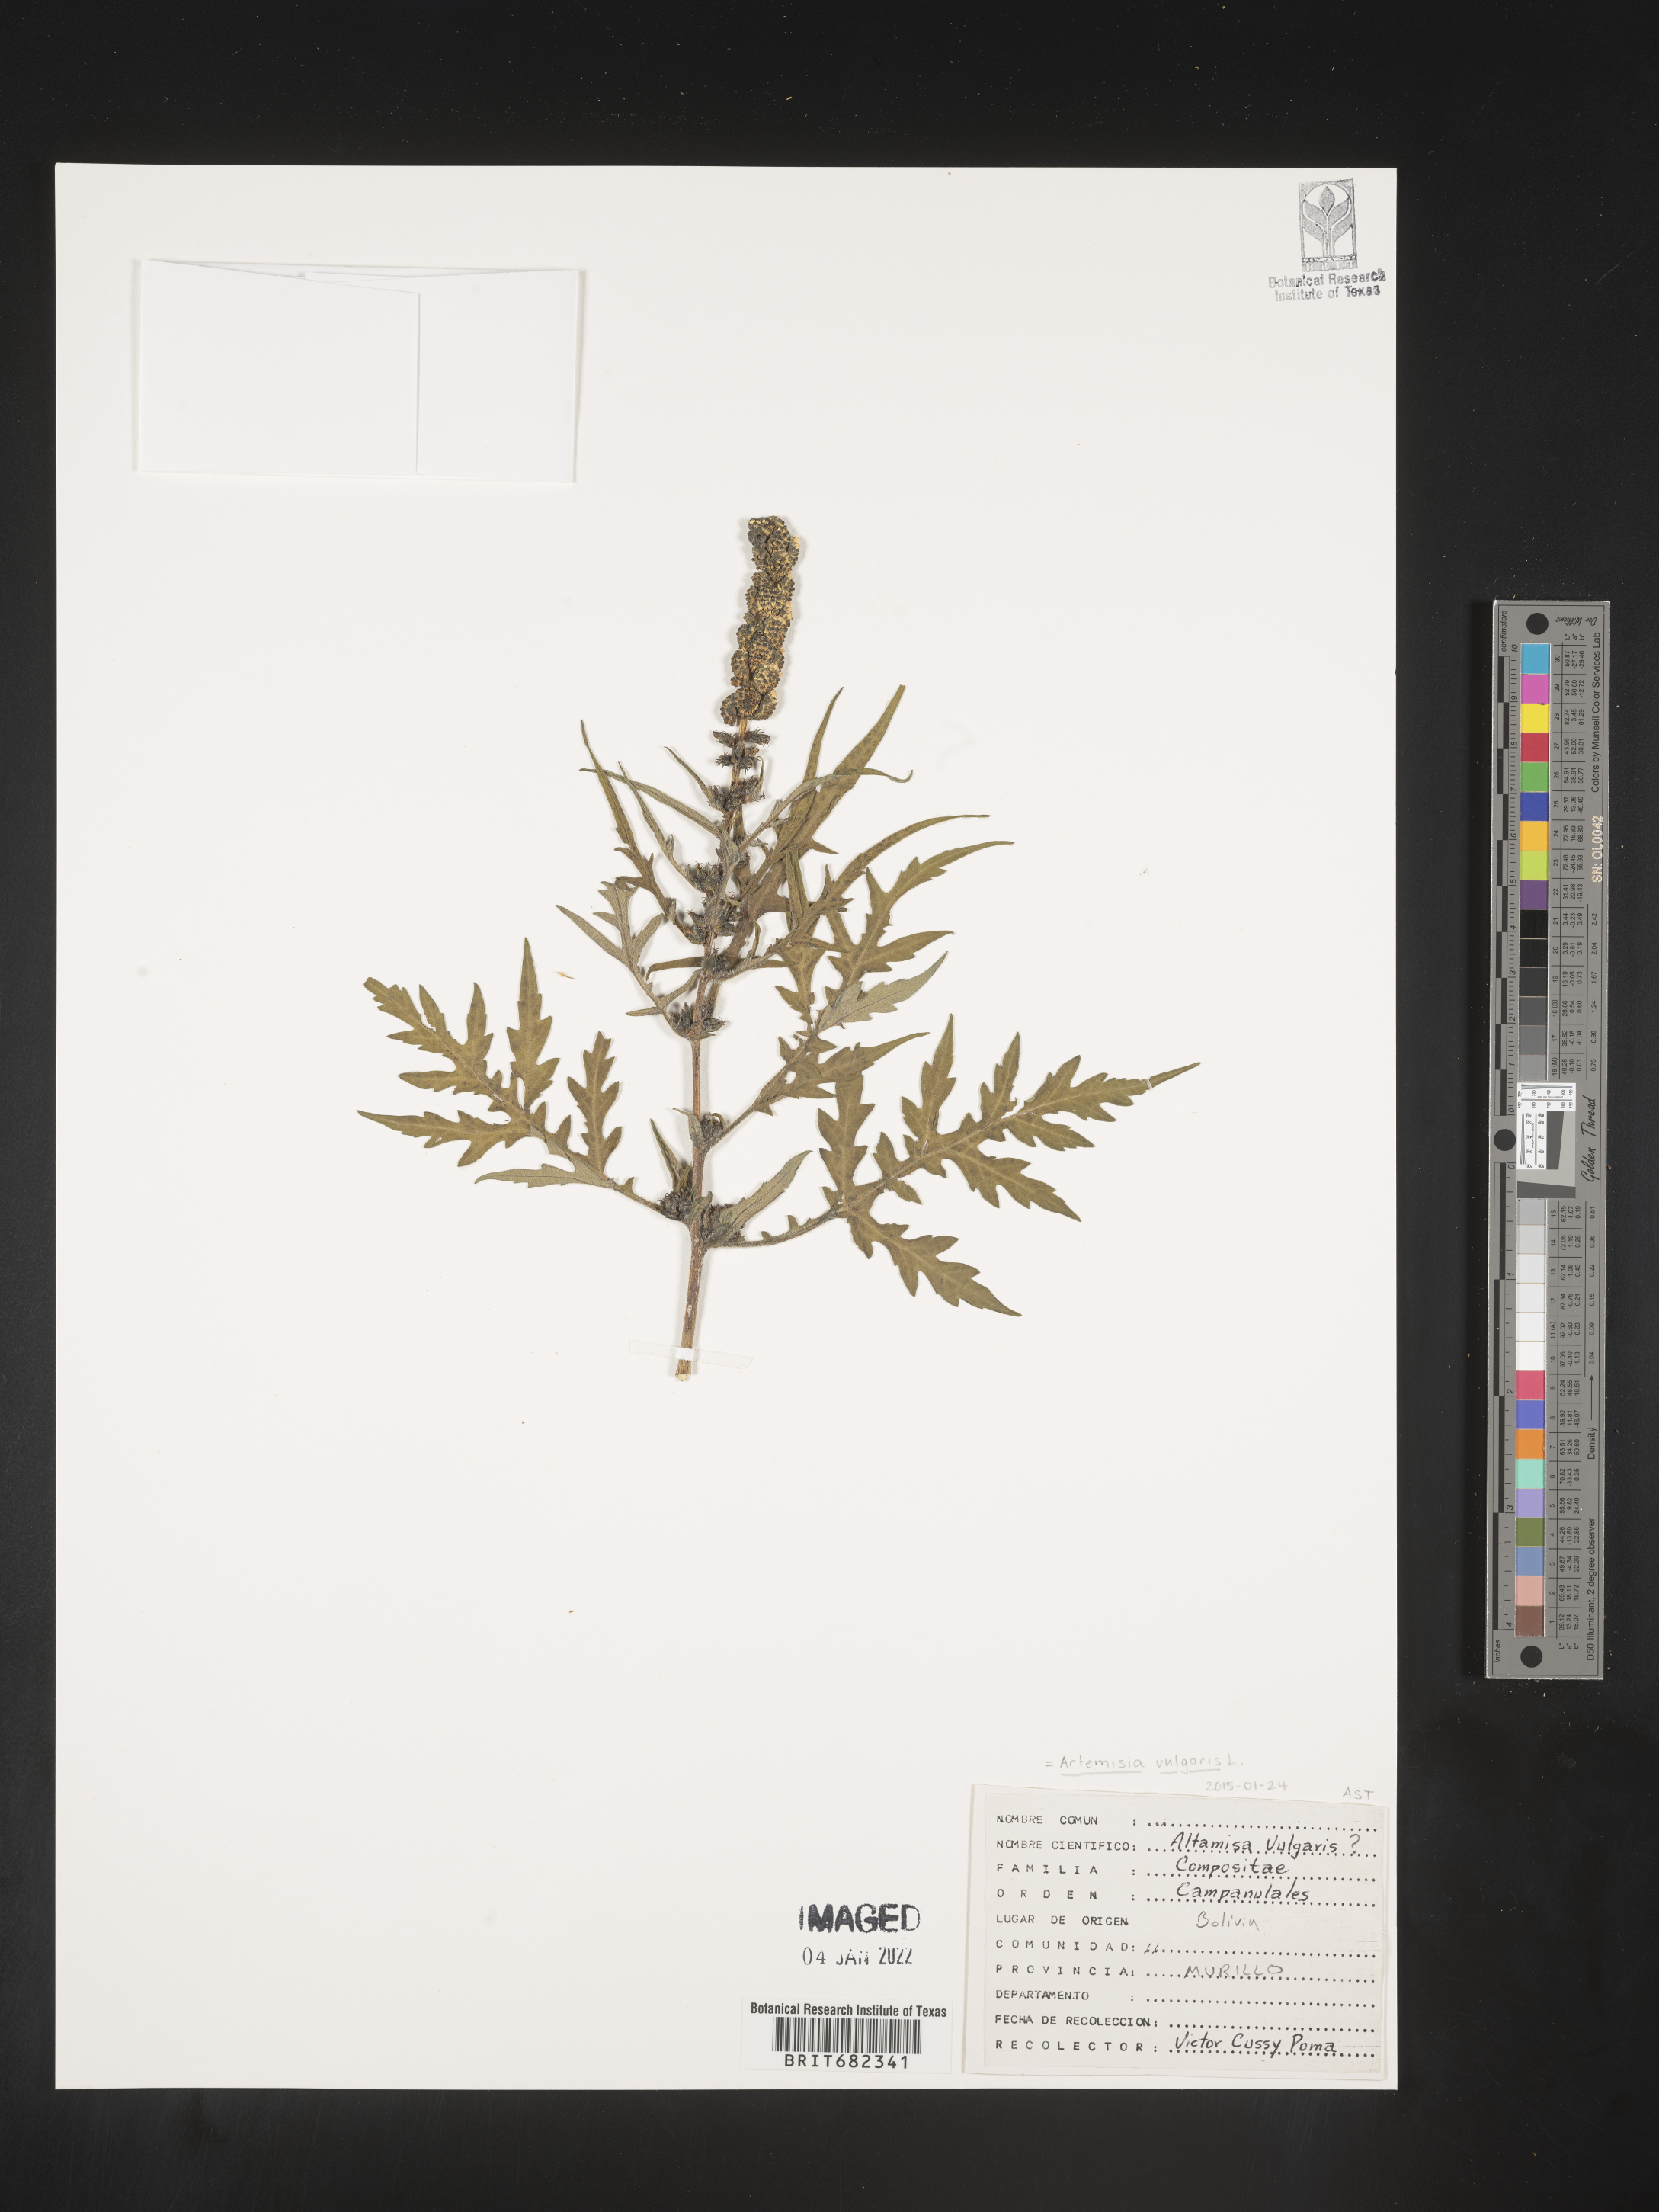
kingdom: Plantae
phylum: Tracheophyta
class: Magnoliopsida
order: Asterales
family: Asteraceae
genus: Artemisia
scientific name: Artemisia
